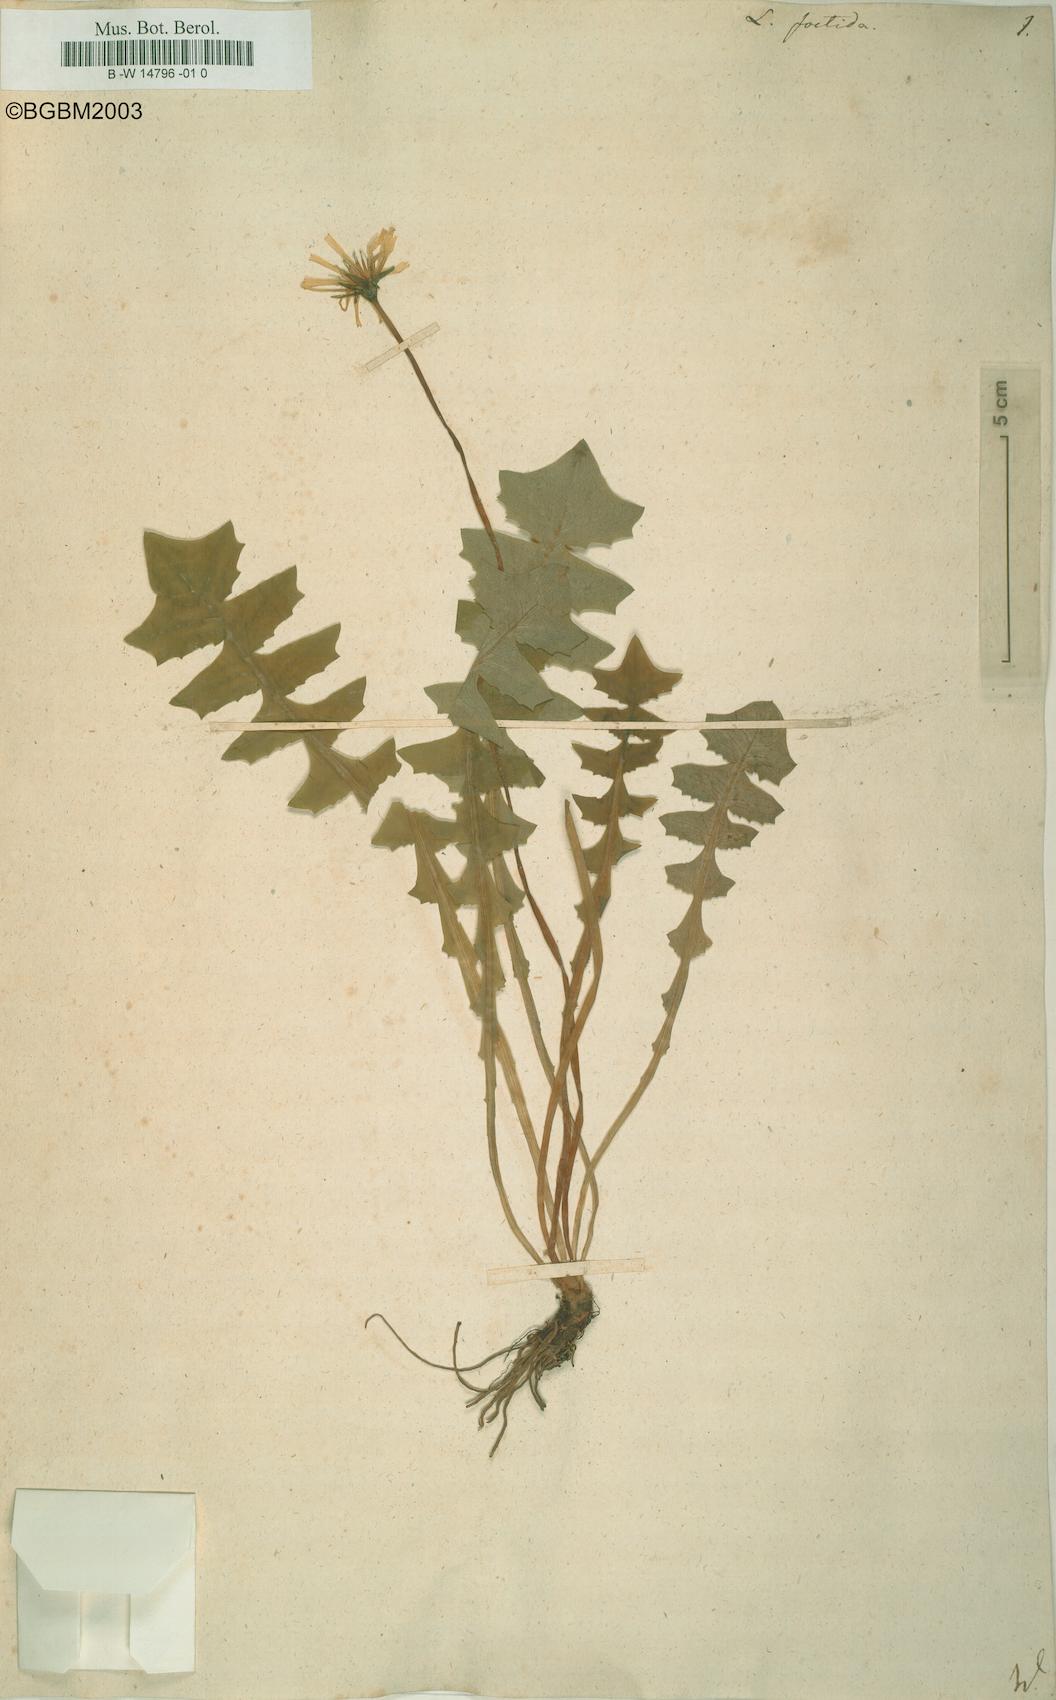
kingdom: Plantae
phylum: Tracheophyta
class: Magnoliopsida
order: Asterales
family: Asteraceae
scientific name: Asteraceae
